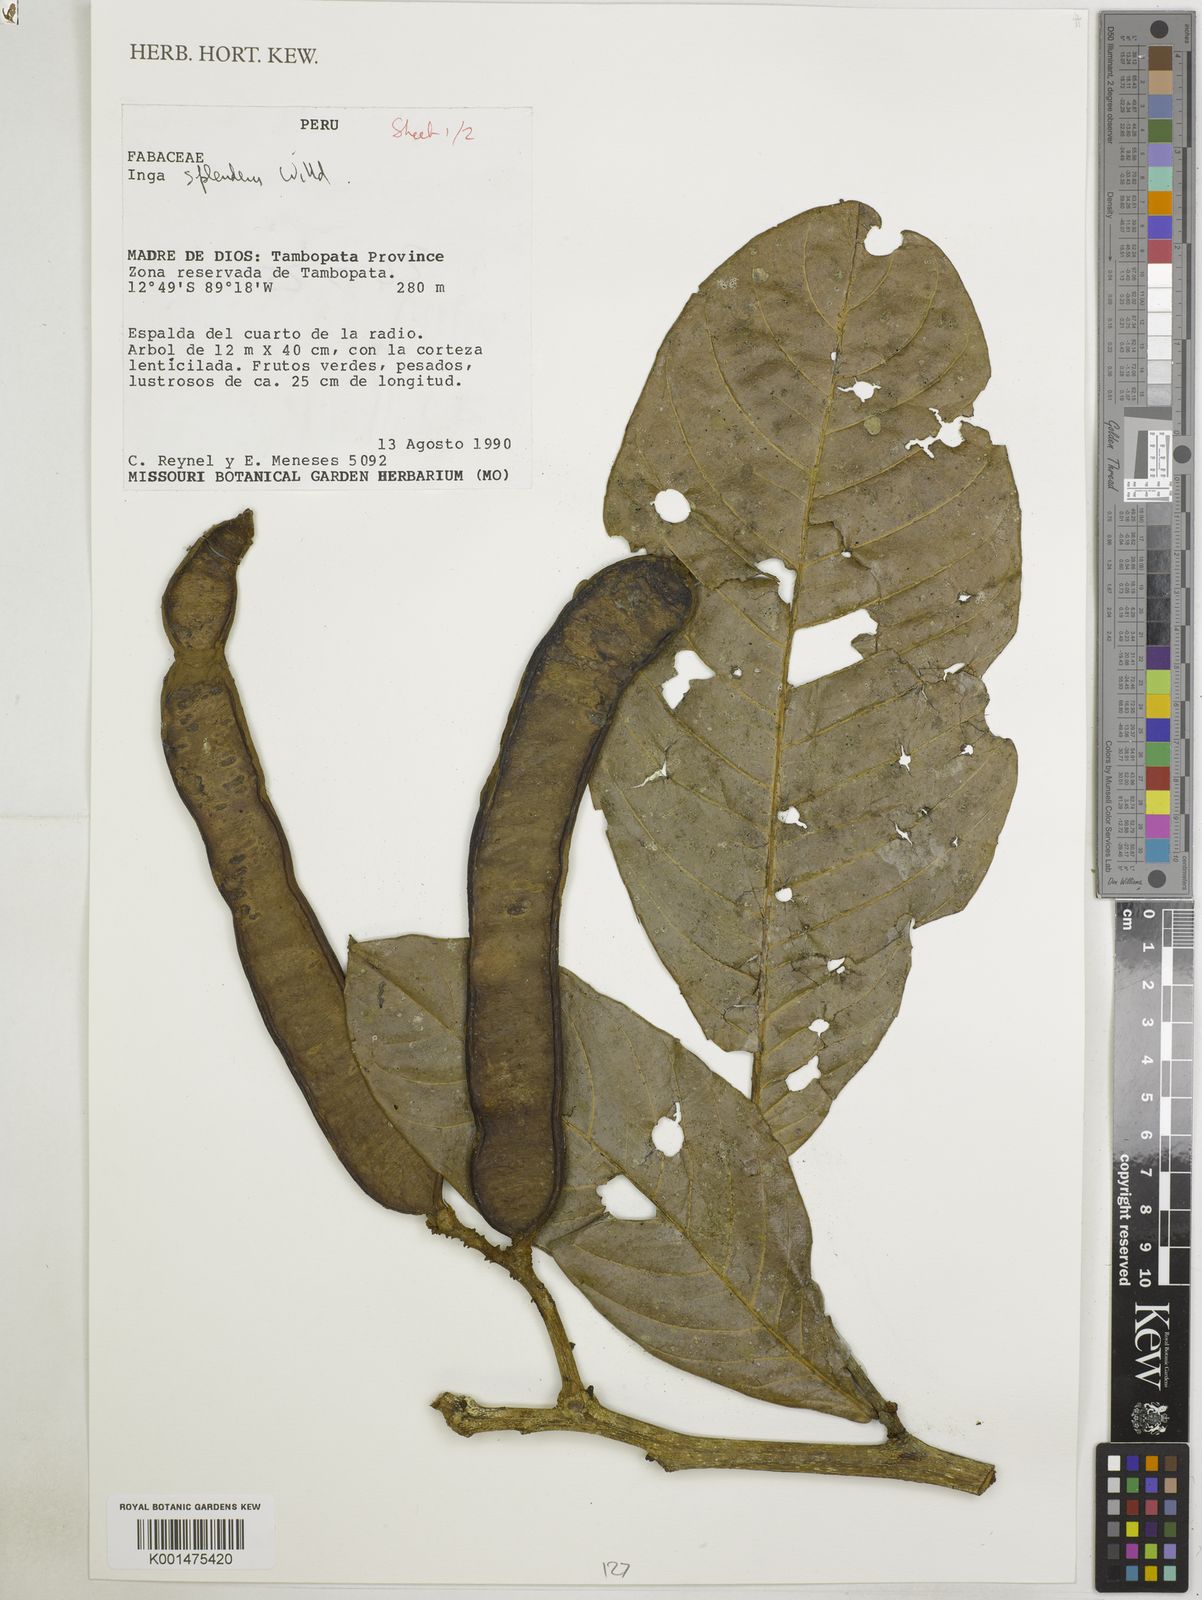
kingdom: Plantae
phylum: Tracheophyta
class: Magnoliopsida
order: Fabales
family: Fabaceae
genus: Inga
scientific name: Inga splendens
